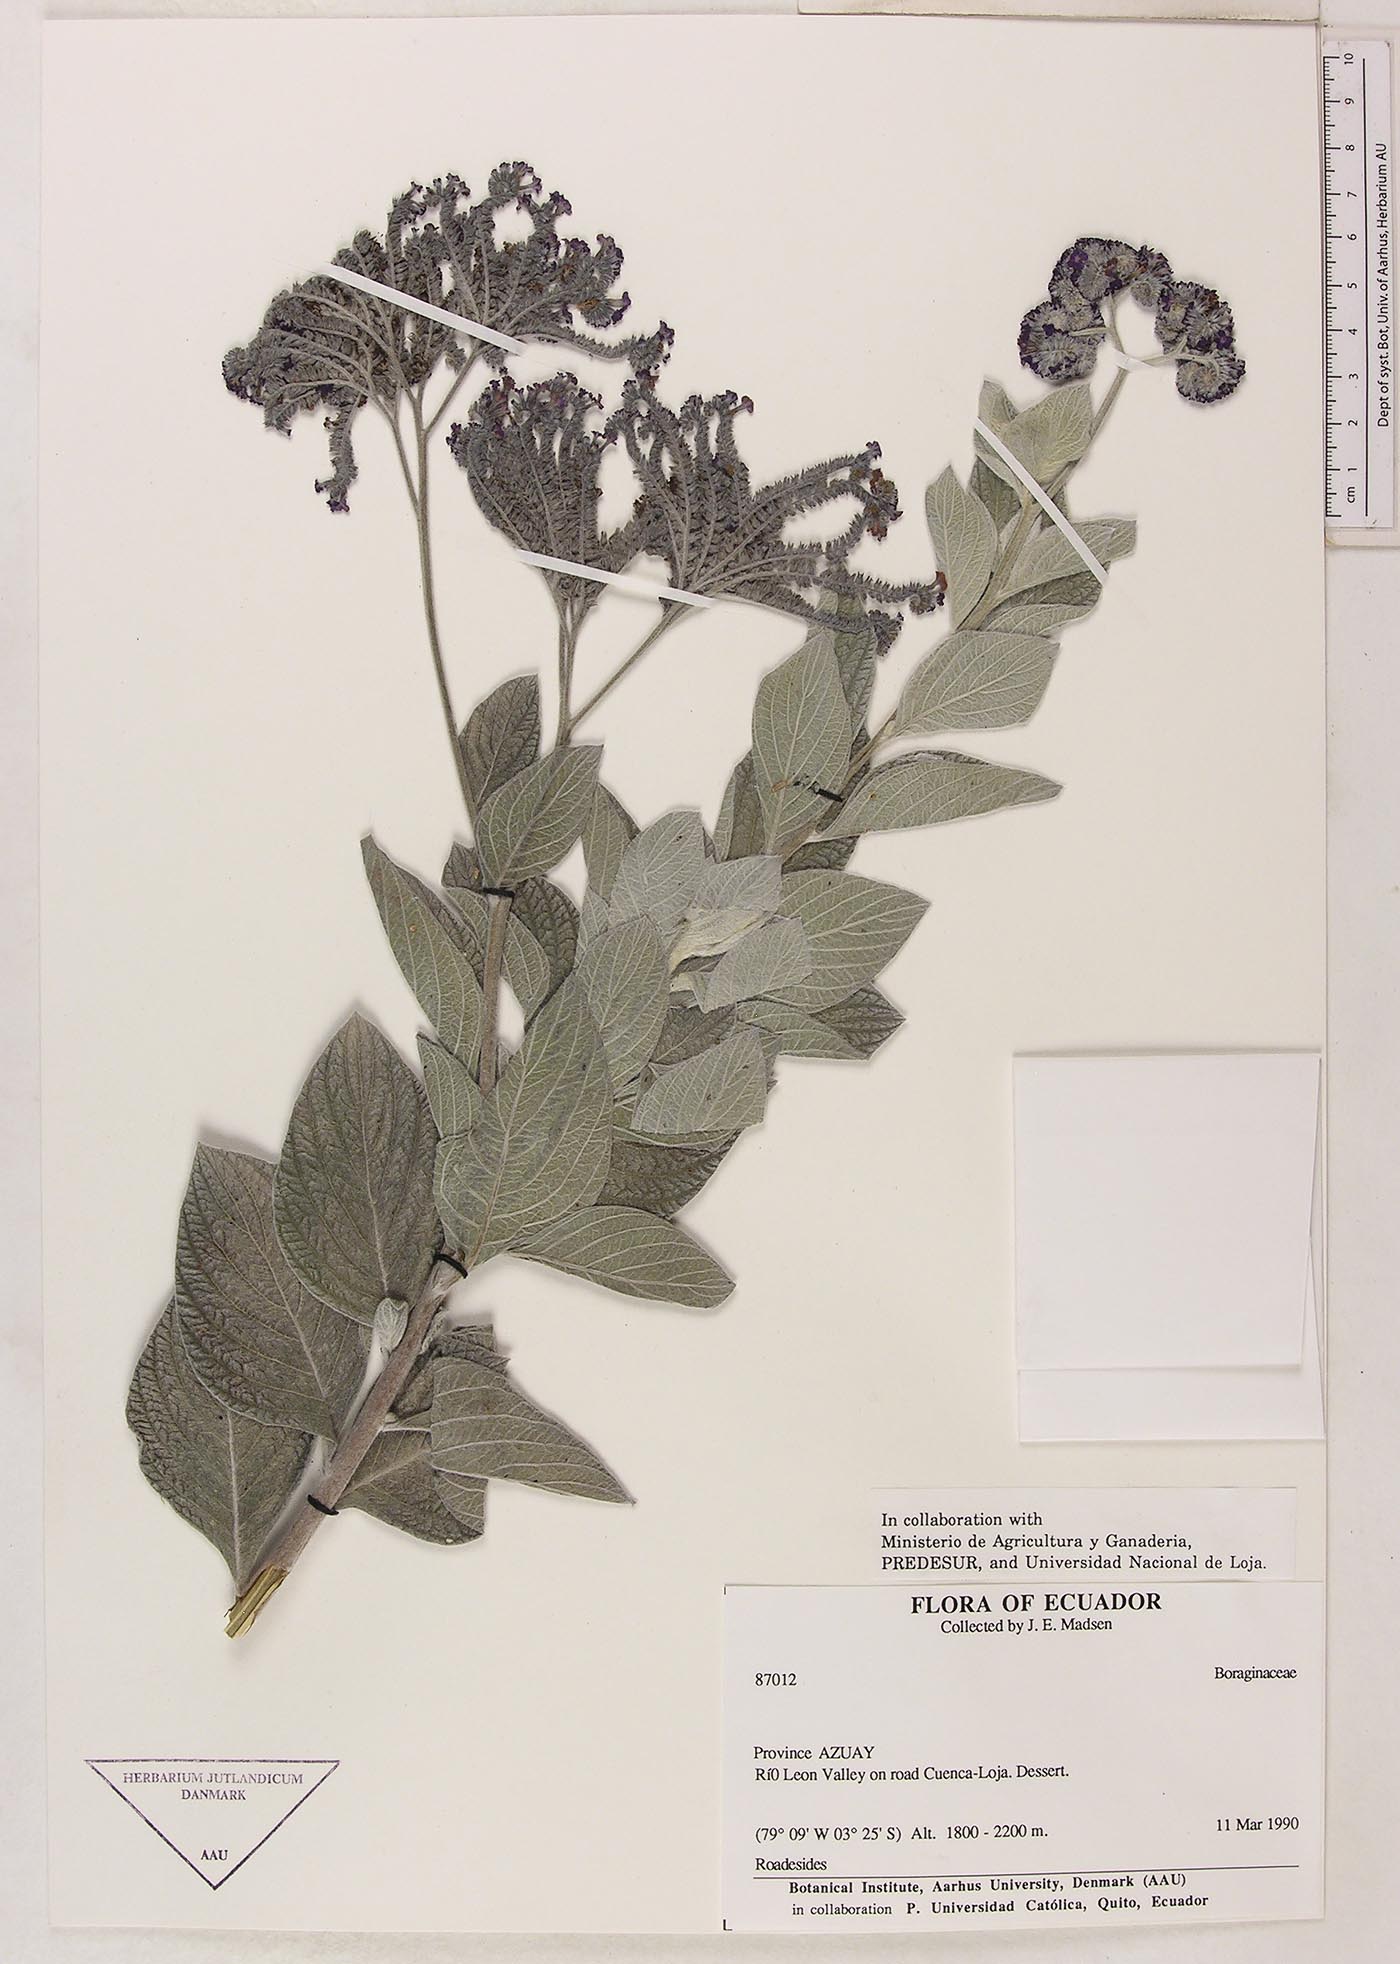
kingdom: Plantae
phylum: Tracheophyta
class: Magnoliopsida
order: Boraginales
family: Heliotropiaceae
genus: Heliotropium
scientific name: Heliotropium argenteum
